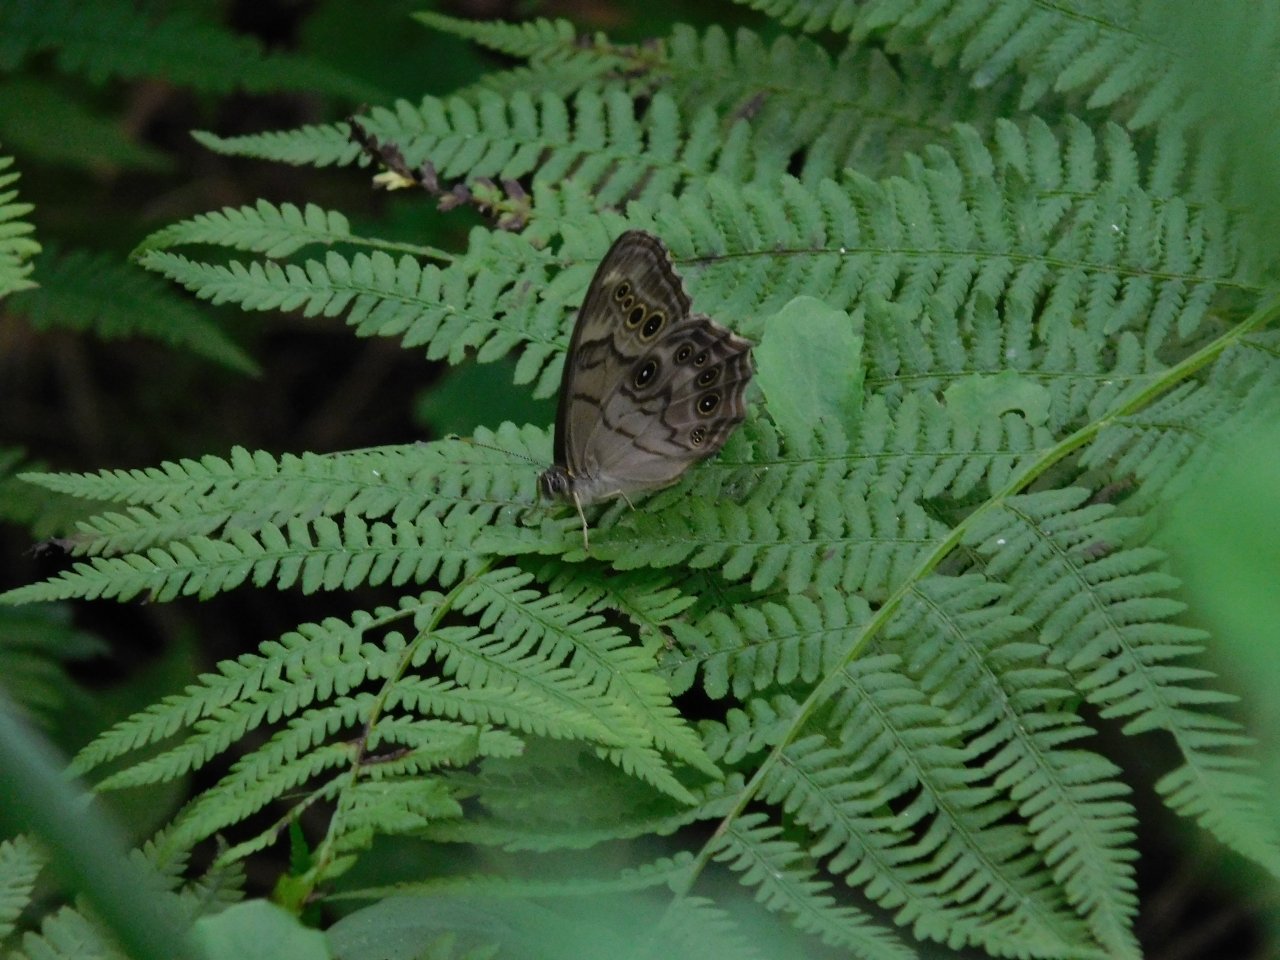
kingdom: Animalia
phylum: Arthropoda
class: Insecta
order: Lepidoptera
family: Nymphalidae
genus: Lethe
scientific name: Lethe anthedon
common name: Northern Pearly-Eye
